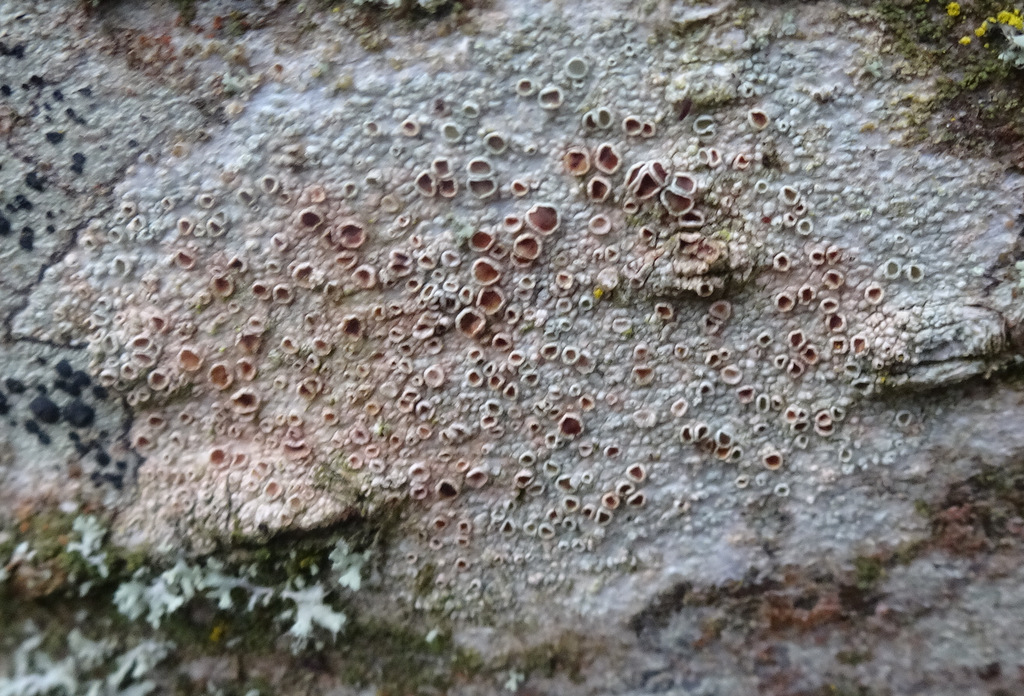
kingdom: Fungi
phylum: Ascomycota
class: Lecanoromycetes
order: Lecanorales
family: Lecanoraceae
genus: Lecanora
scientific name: Lecanora chlarotera
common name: brun kantskivelav
